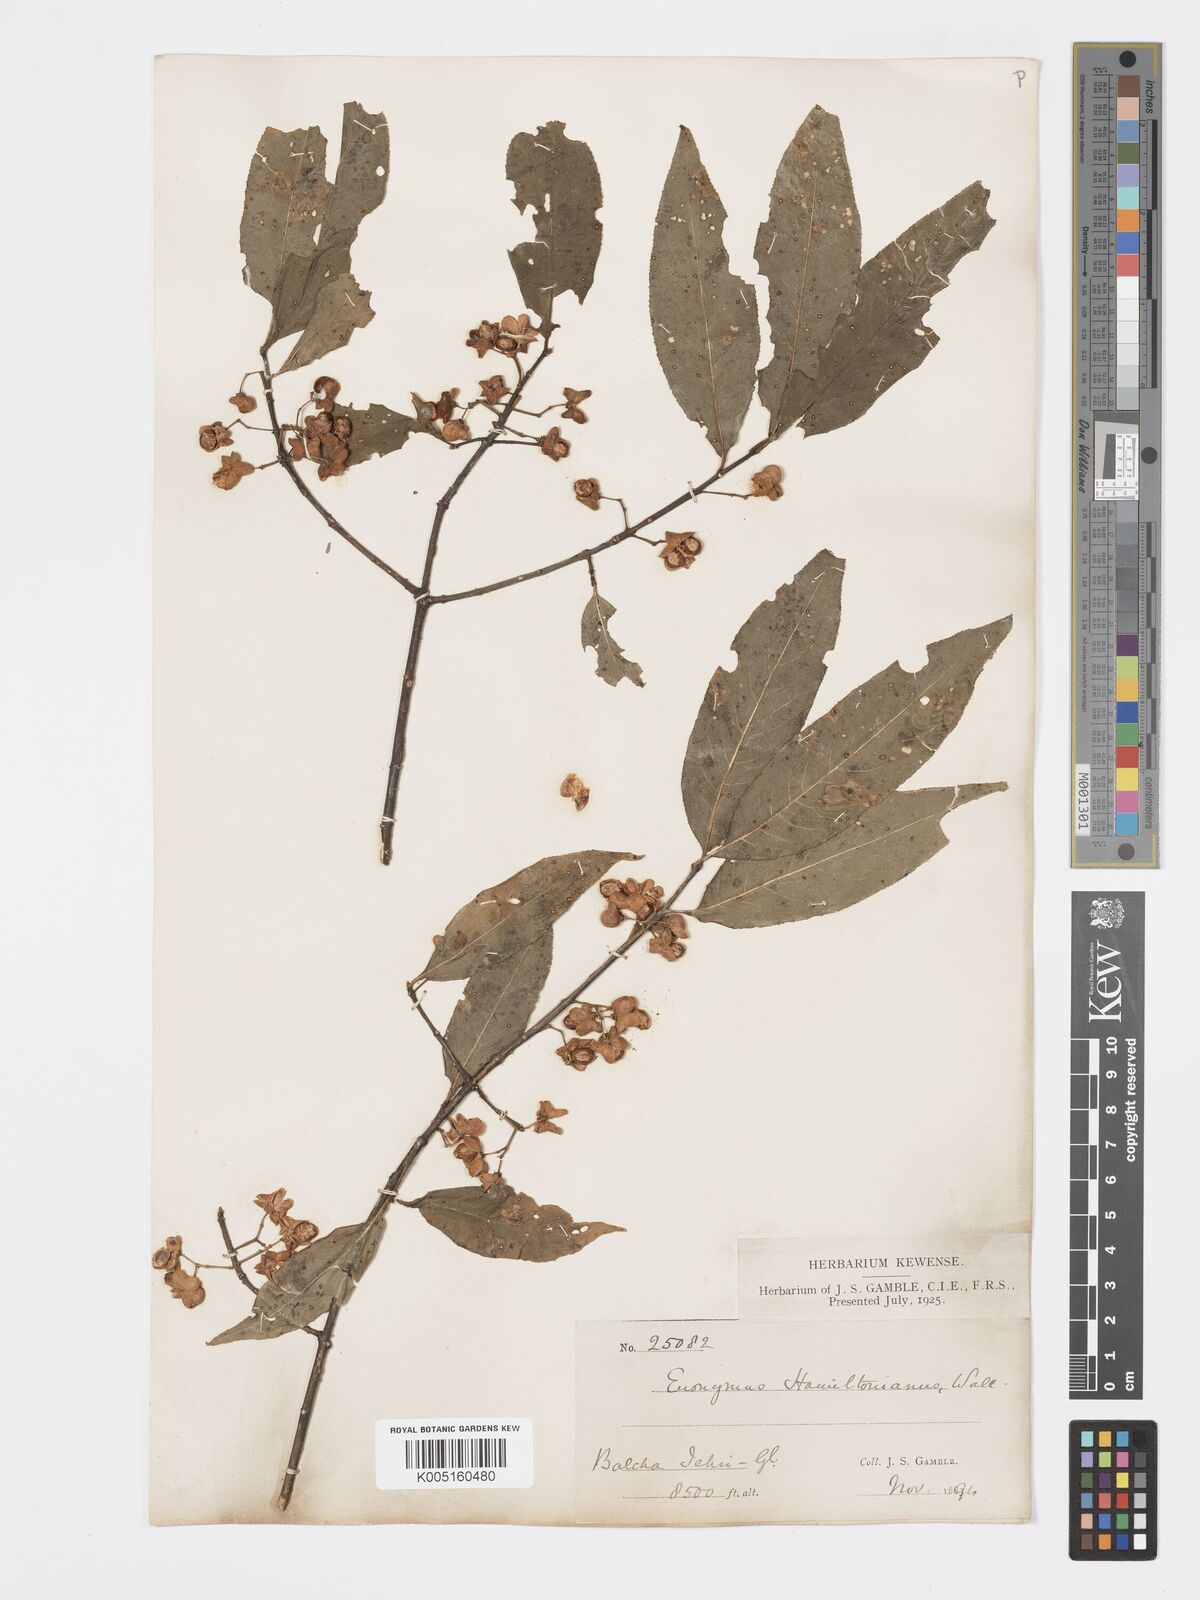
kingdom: Plantae
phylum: Tracheophyta
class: Magnoliopsida
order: Celastrales
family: Celastraceae
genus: Euonymus
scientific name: Euonymus
